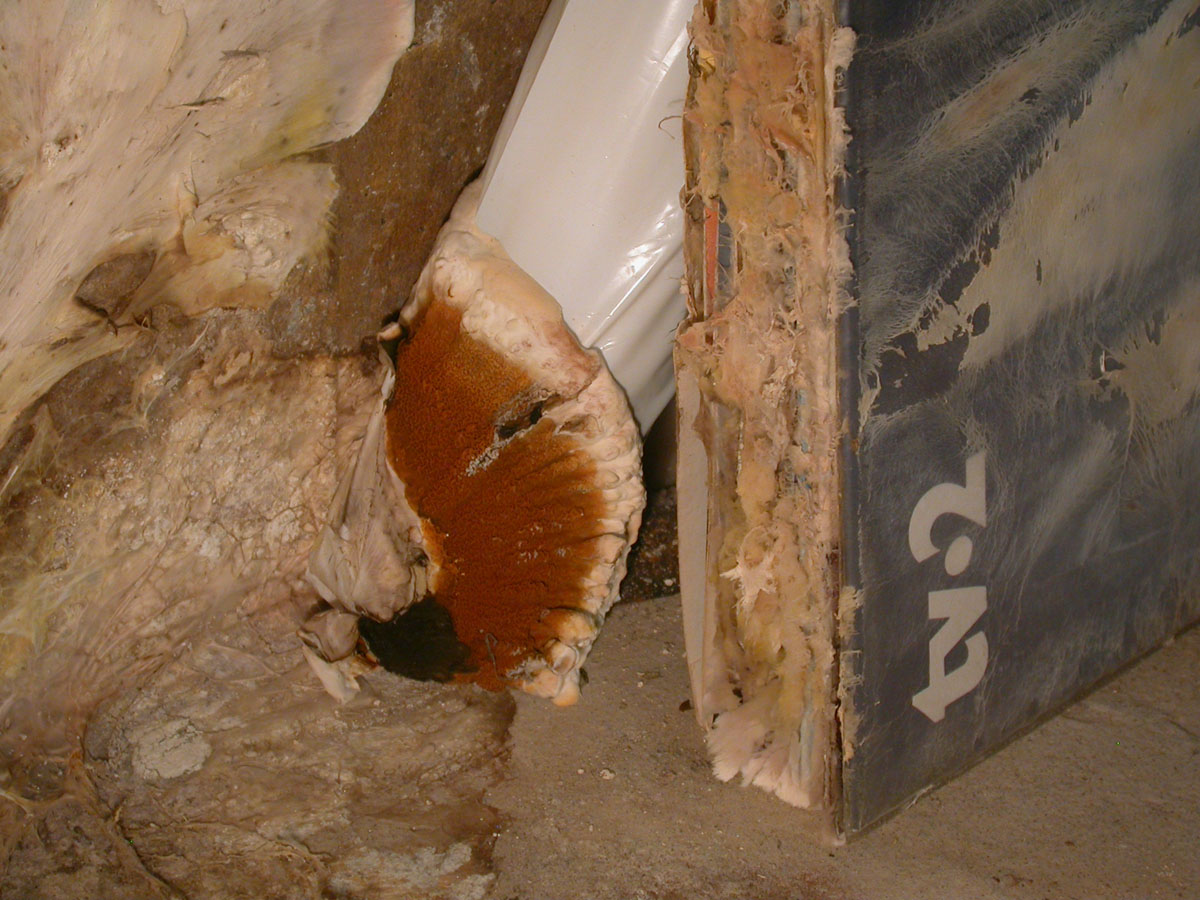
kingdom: Fungi
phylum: Basidiomycota
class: Agaricomycetes
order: Boletales
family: Serpulaceae
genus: Serpula
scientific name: Serpula lacrymans
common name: ægte hussvamp
